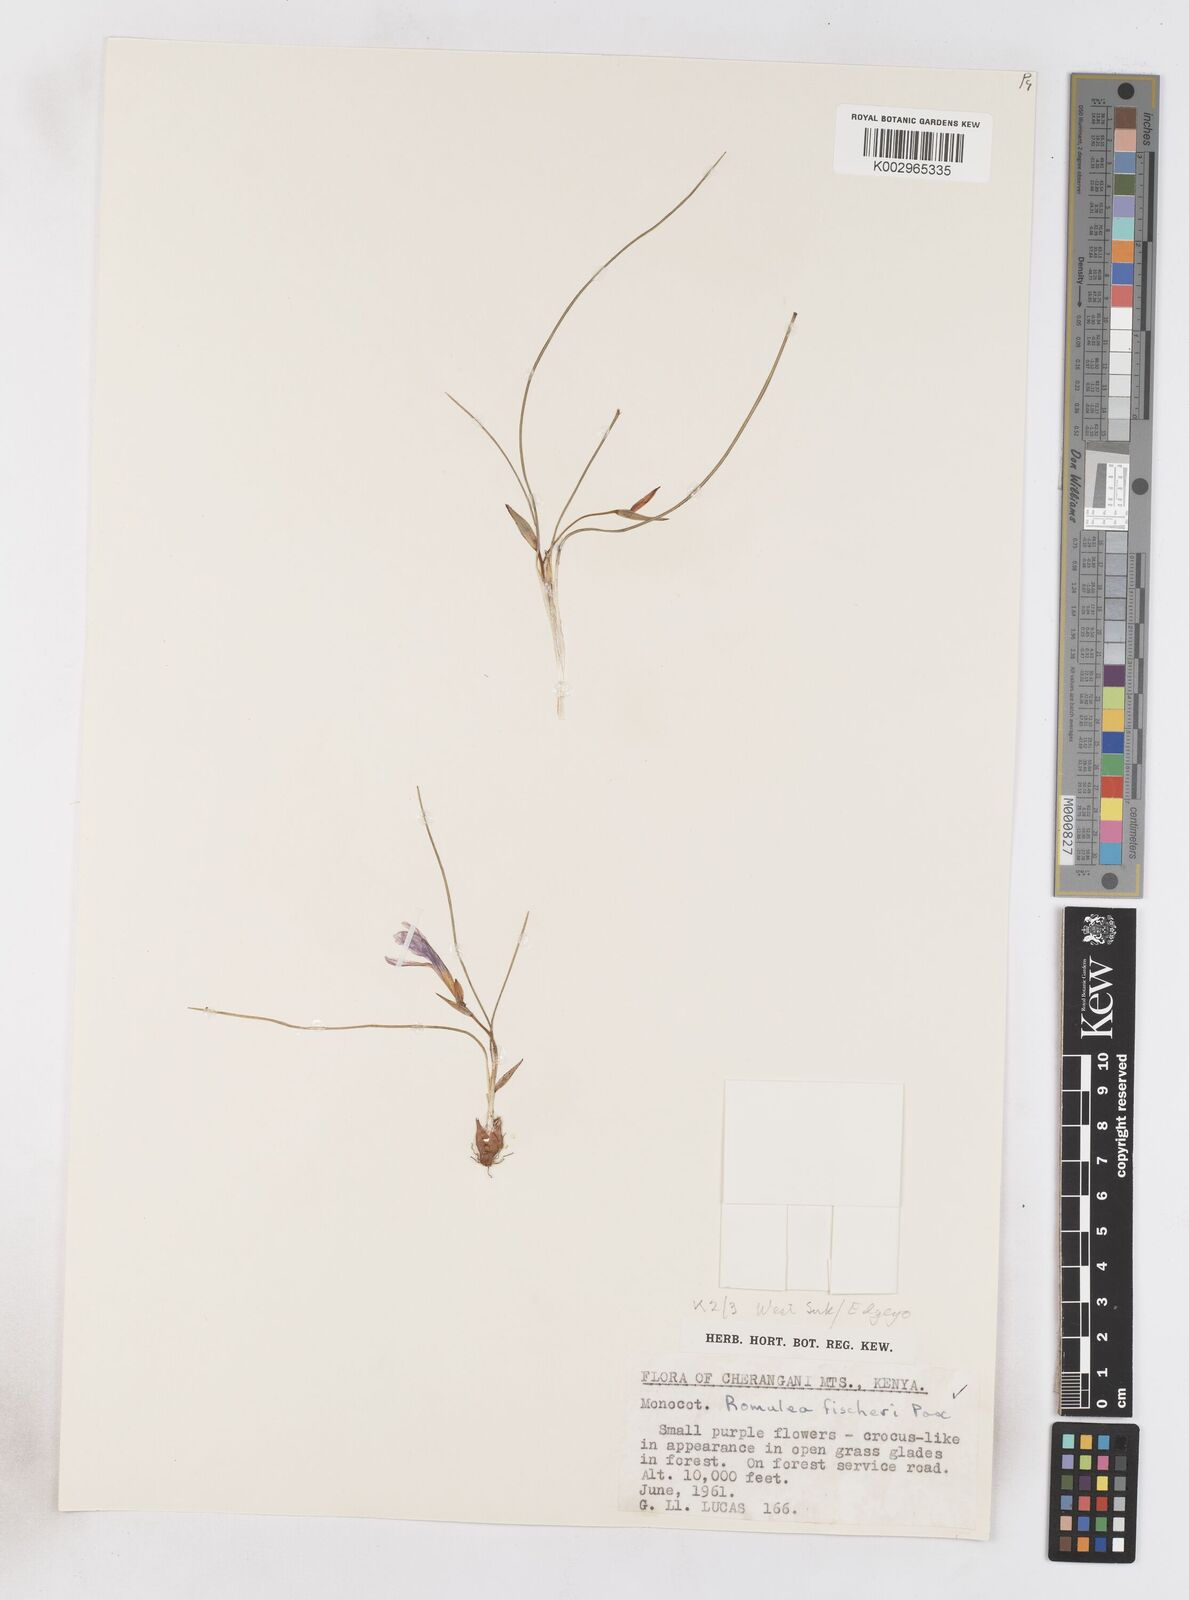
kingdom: Plantae
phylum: Tracheophyta
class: Liliopsida
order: Asparagales
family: Iridaceae
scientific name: Iridaceae
